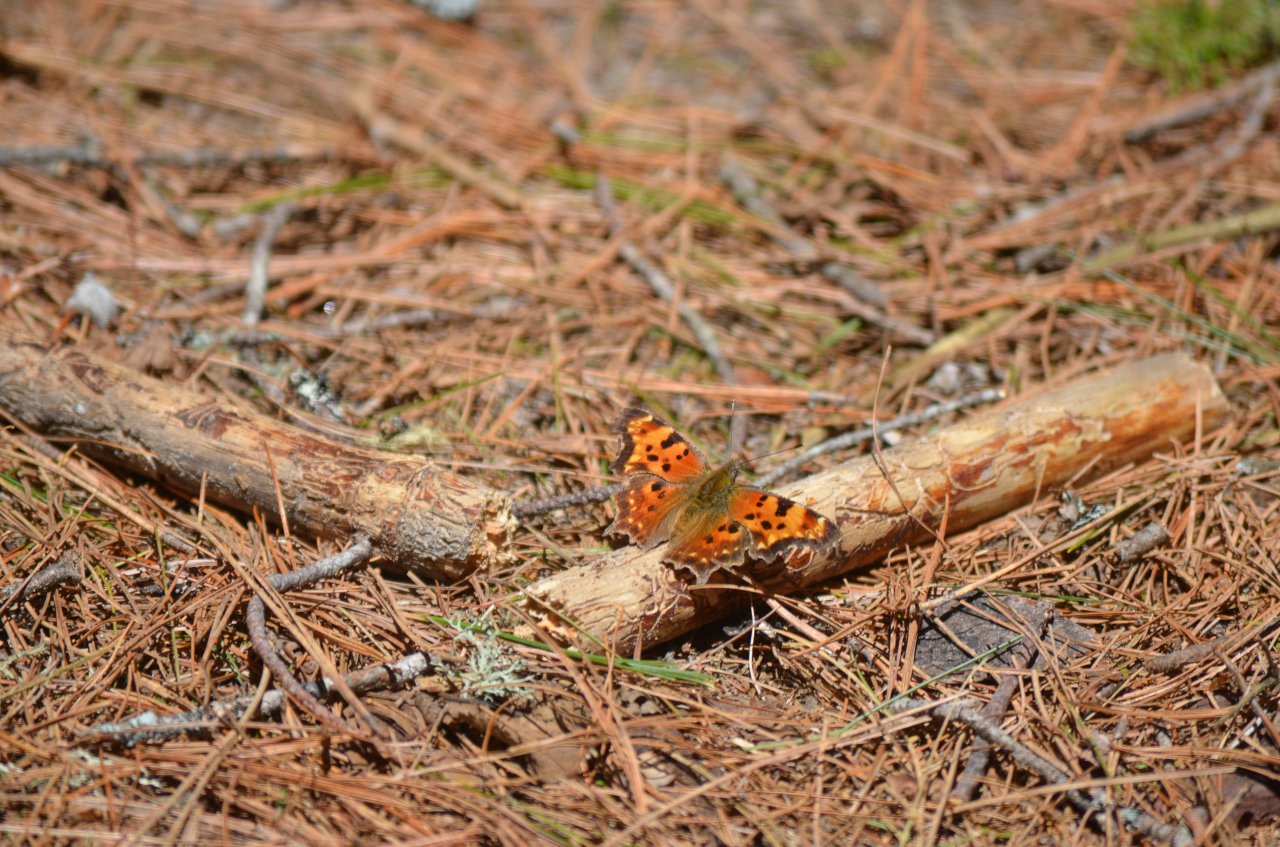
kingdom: Animalia
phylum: Arthropoda
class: Insecta
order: Lepidoptera
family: Nymphalidae
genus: Polygonia
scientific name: Polygonia faunus
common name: Green Comma
